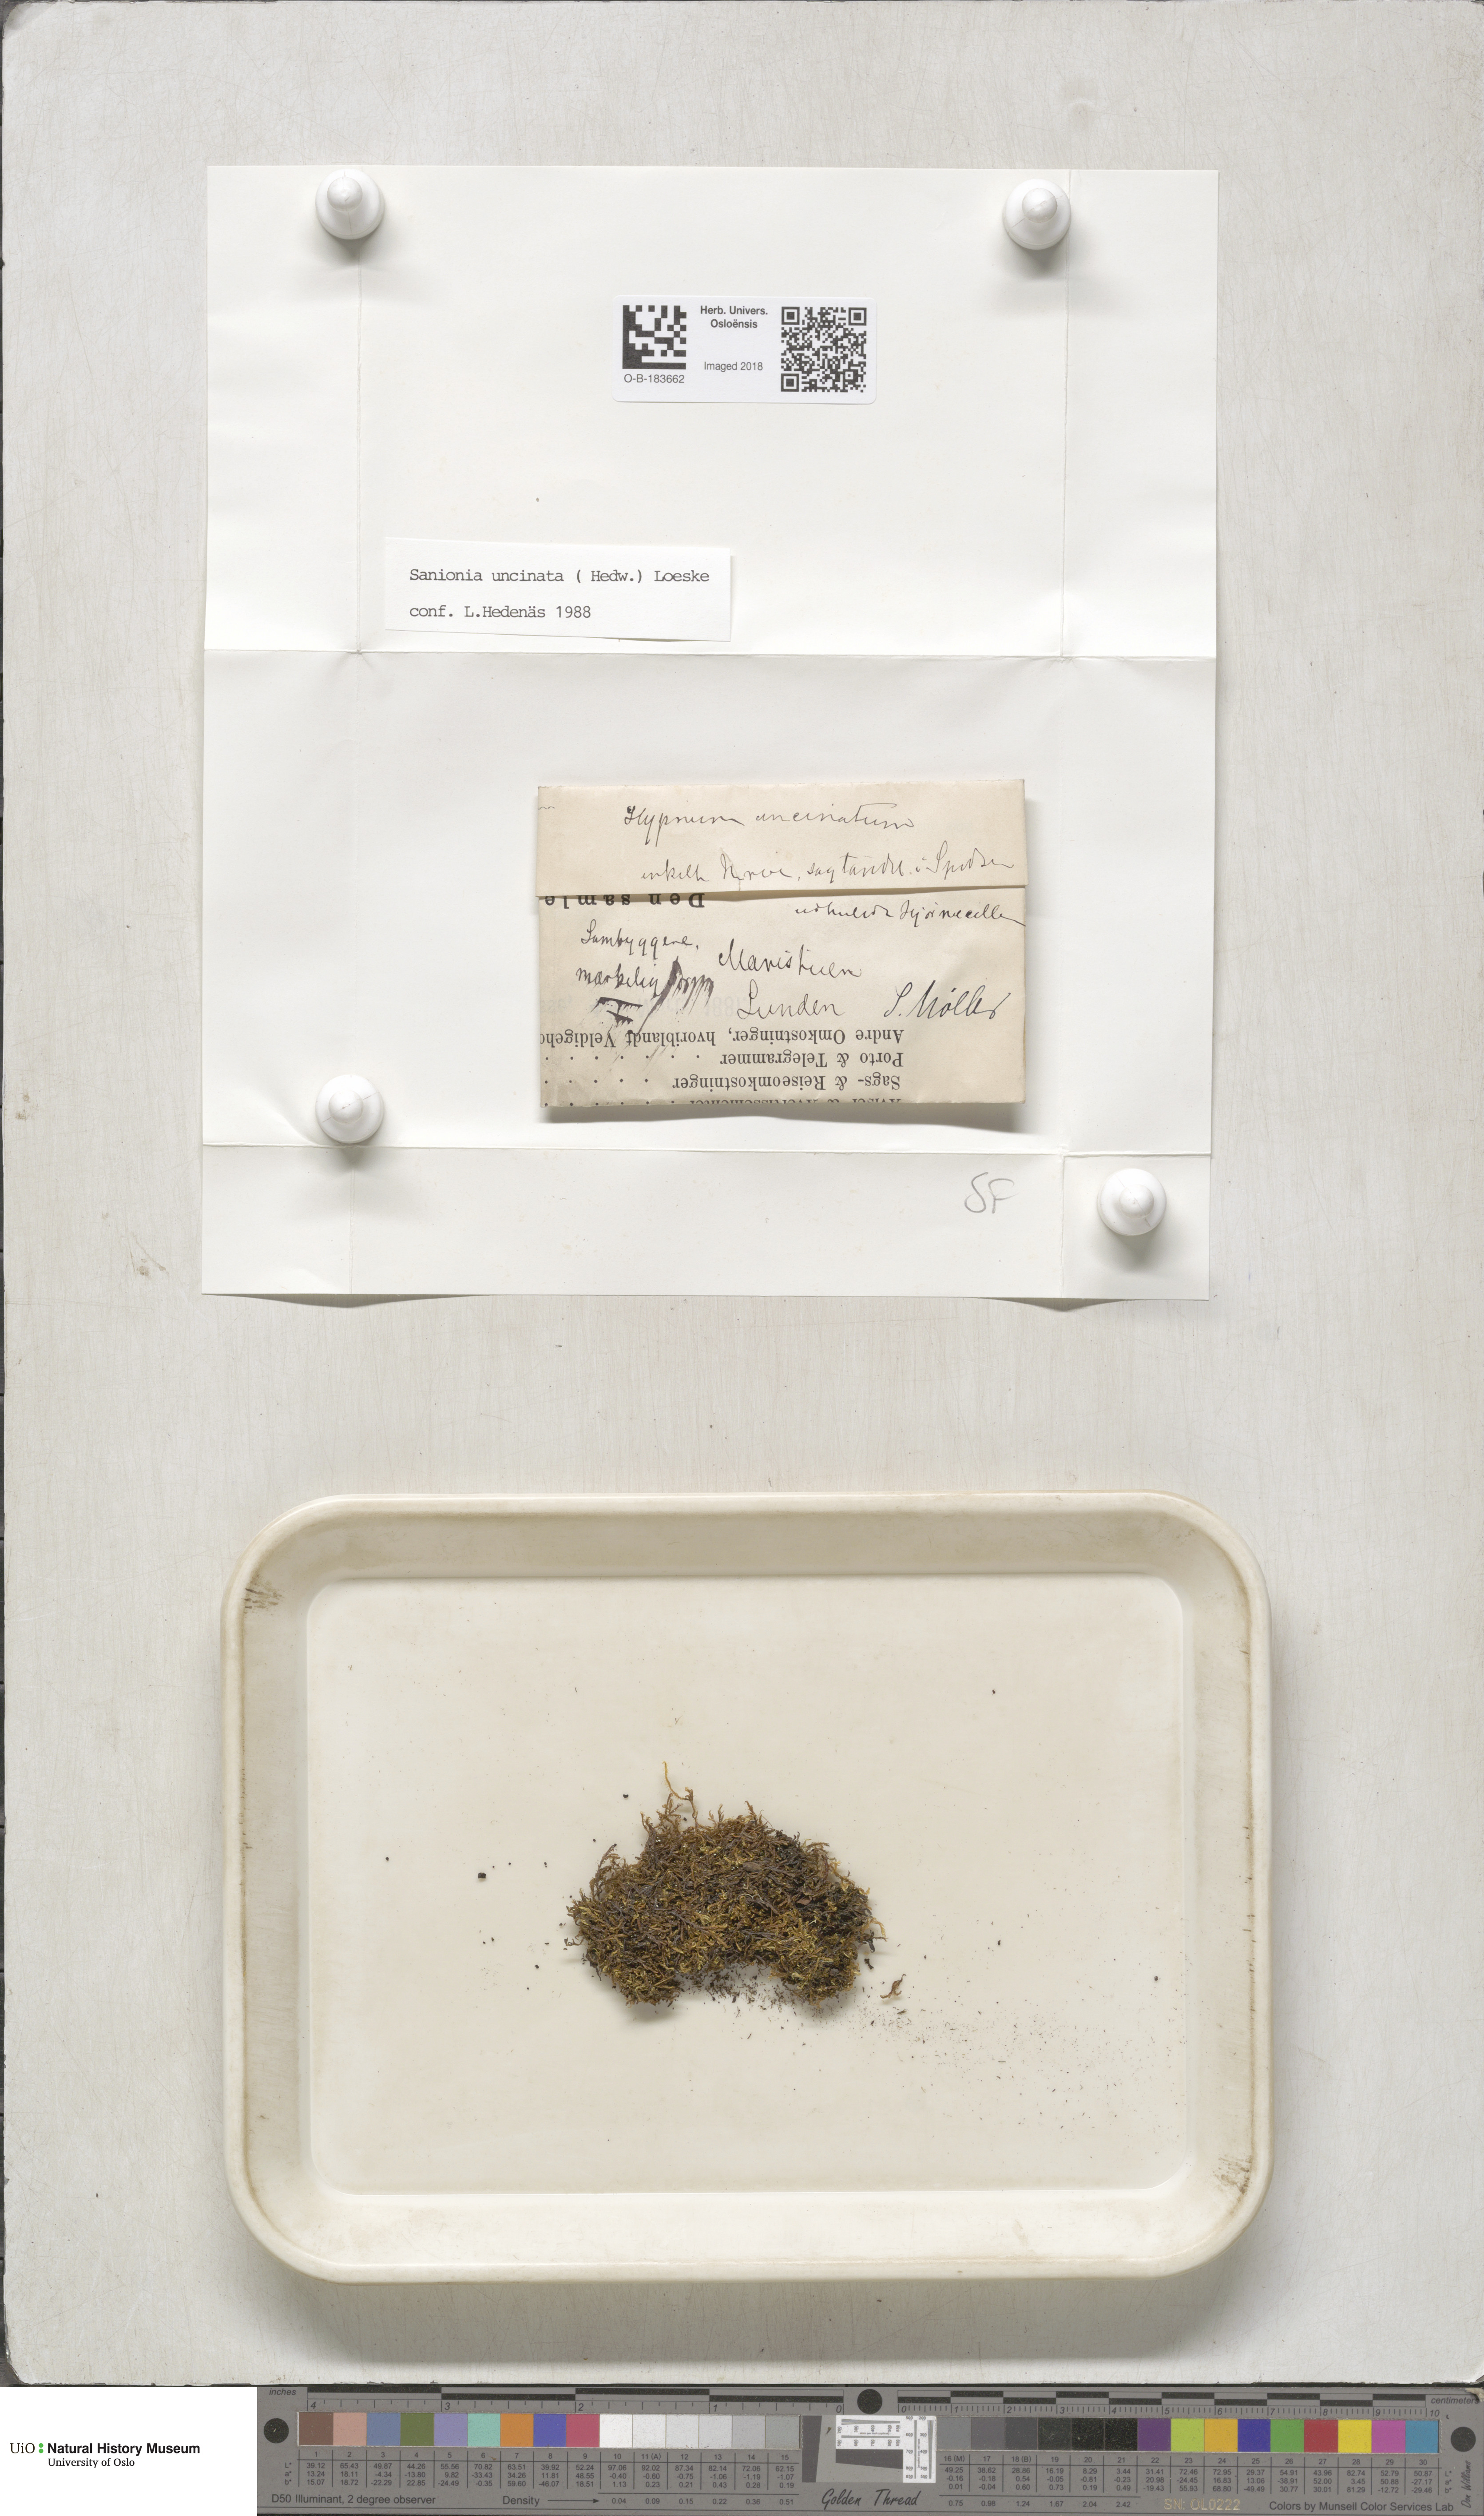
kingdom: Plantae
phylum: Bryophyta
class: Bryopsida
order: Hypnales
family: Scorpidiaceae
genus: Sanionia
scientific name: Sanionia uncinata
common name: Sickle moss
